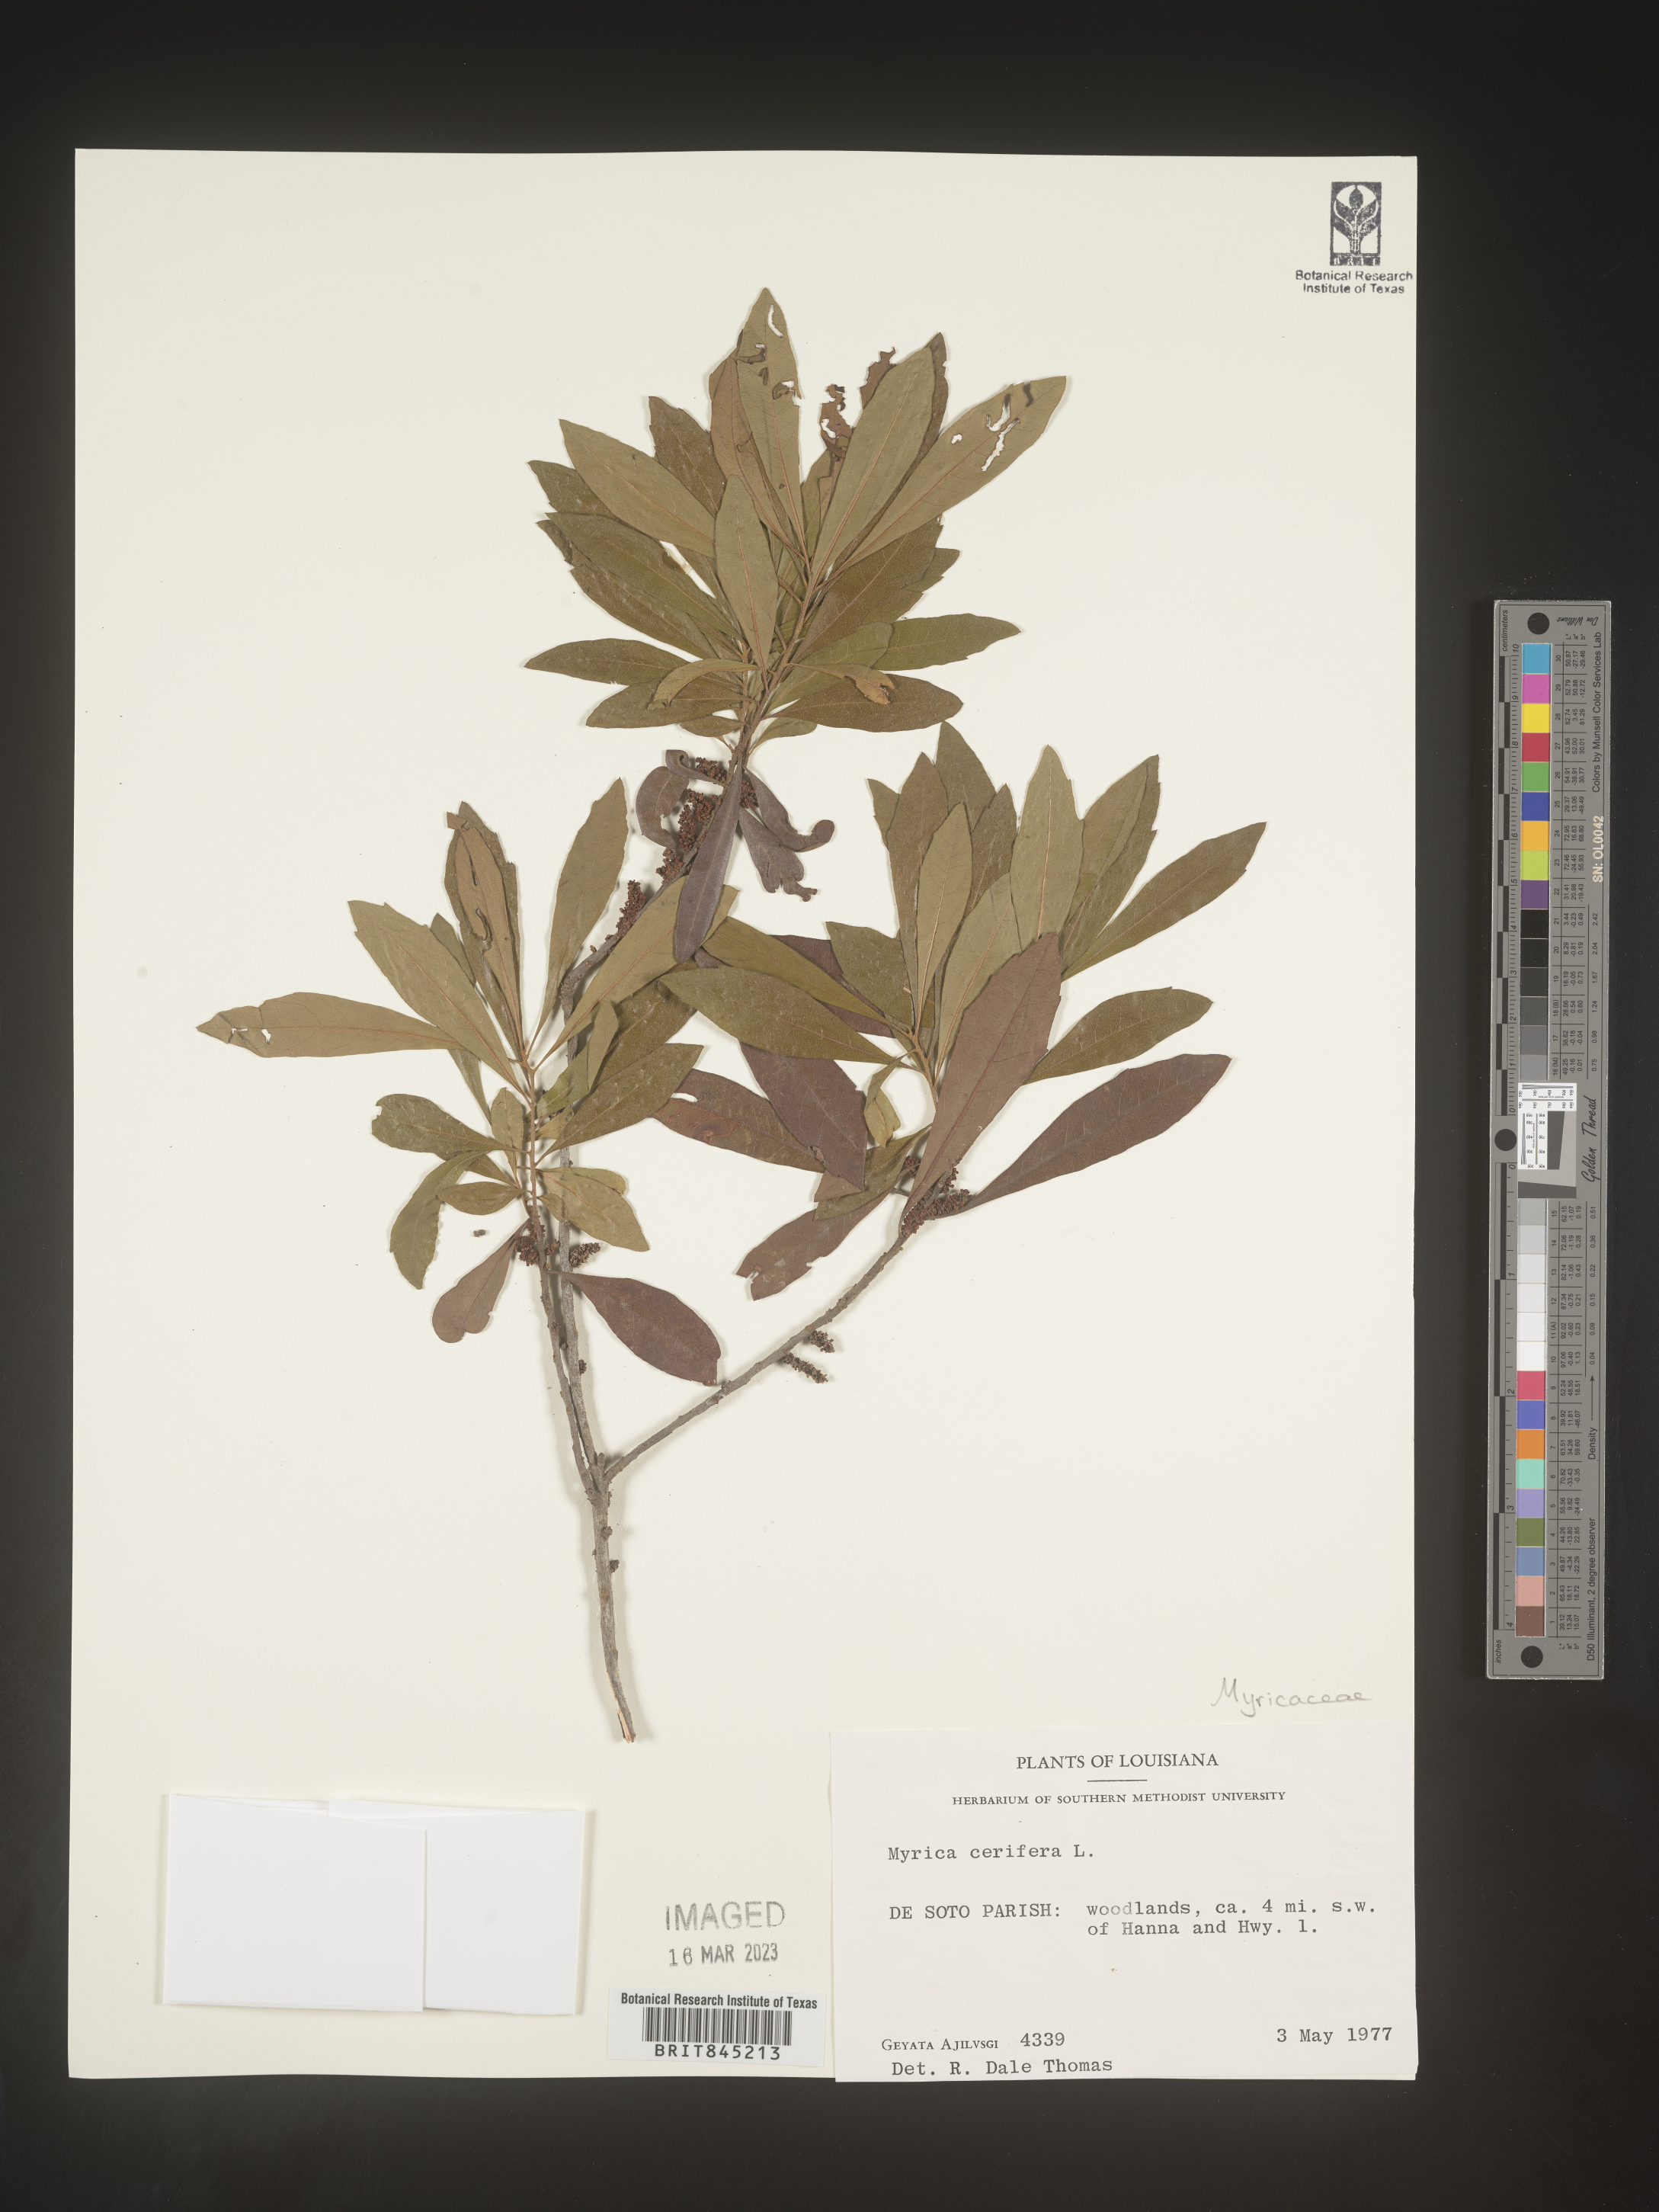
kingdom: Plantae
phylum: Tracheophyta
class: Magnoliopsida
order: Fagales
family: Myricaceae
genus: Morella
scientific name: Morella cerifera
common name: Wax myrtle
